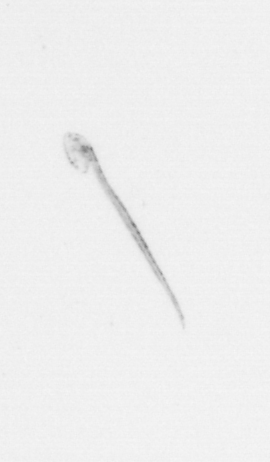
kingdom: Animalia
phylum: Chordata
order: Copelata
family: Fritillariidae
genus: Appendicularia
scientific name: Appendicularia
